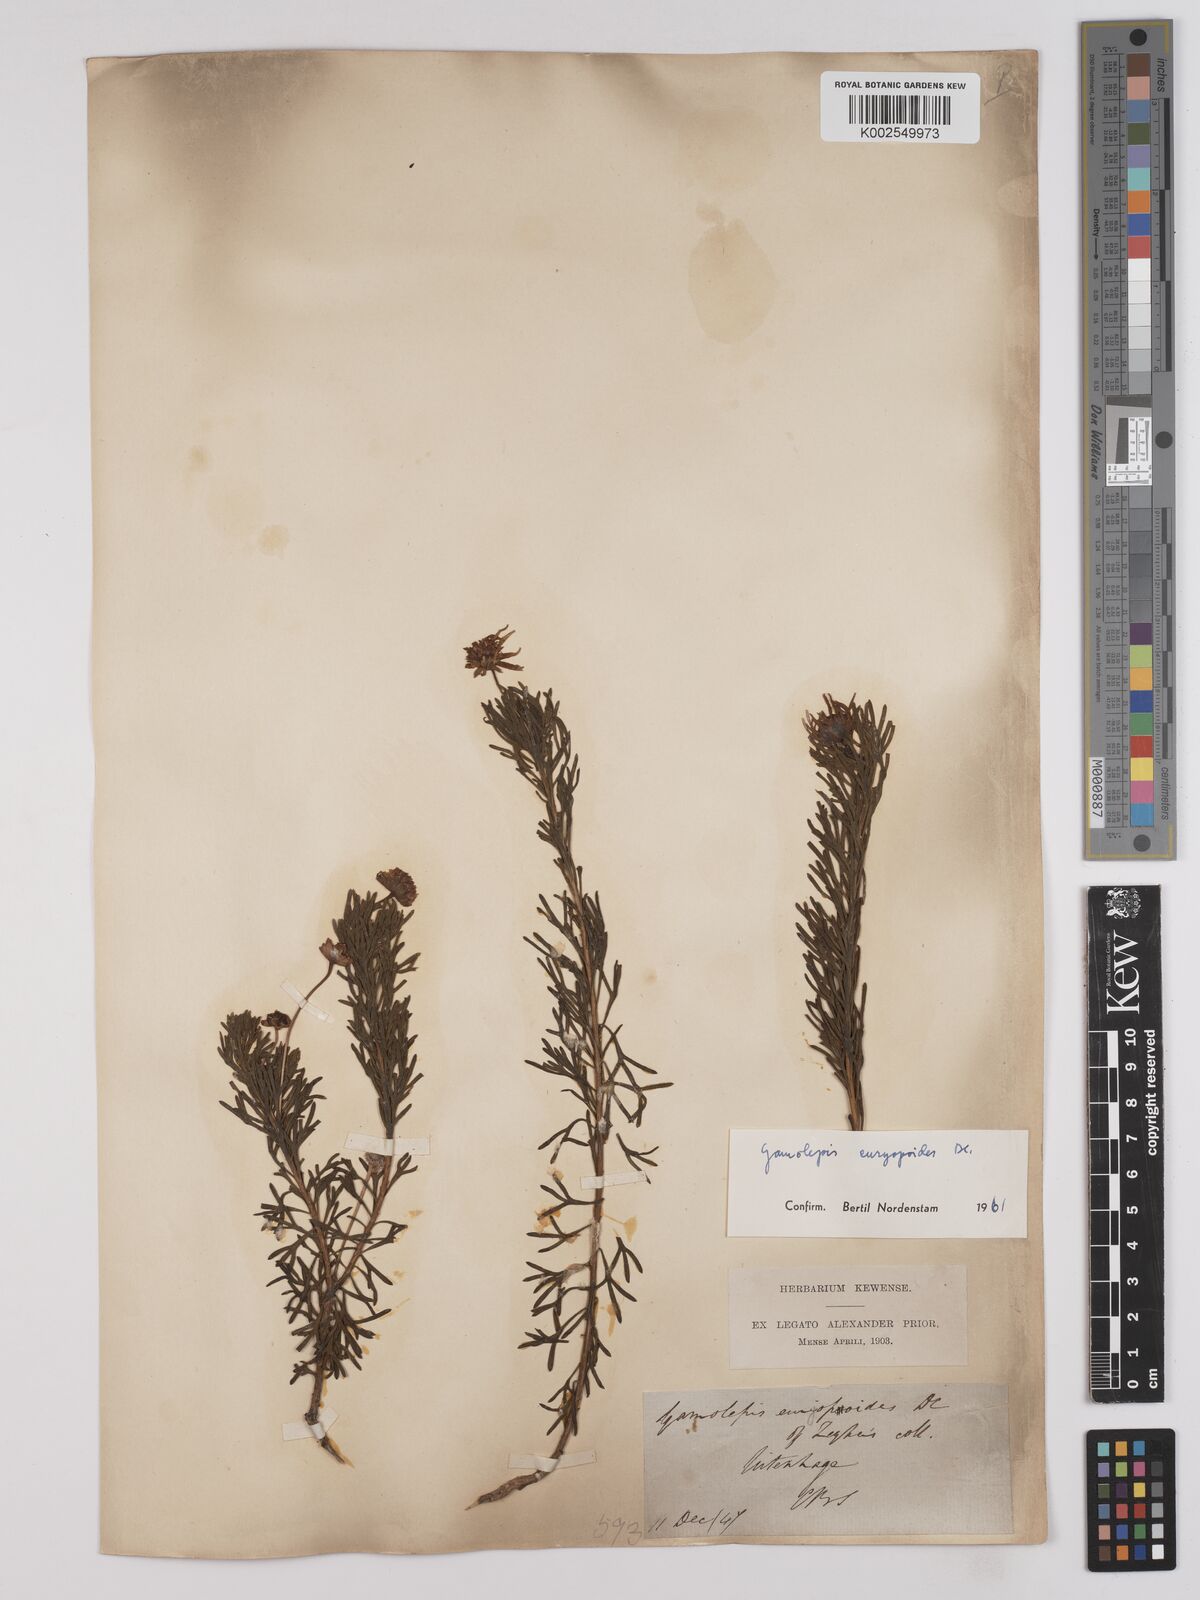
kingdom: Plantae
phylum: Tracheophyta
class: Magnoliopsida
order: Asterales
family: Asteraceae
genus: Euryops
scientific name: Euryops euryopoides
